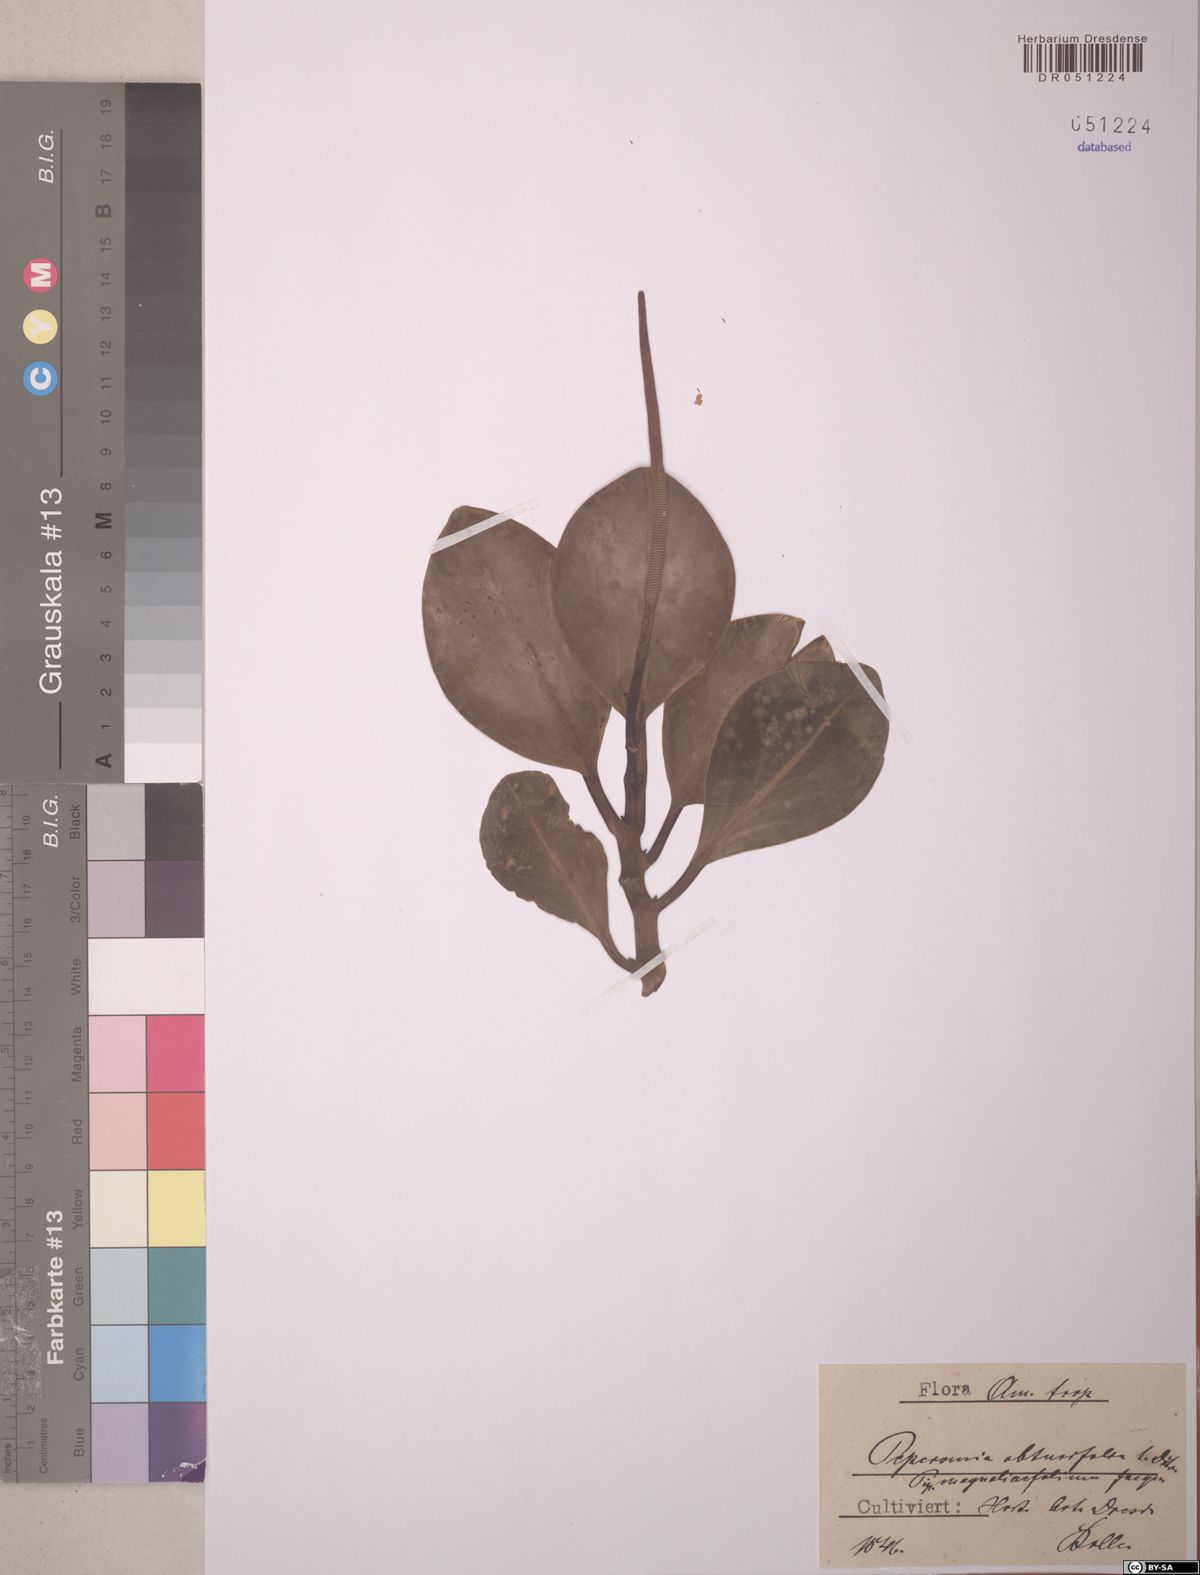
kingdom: Plantae
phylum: Tracheophyta
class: Magnoliopsida
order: Piperales
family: Piperaceae
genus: Peperomia
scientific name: Peperomia obtusifolia
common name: Baby rubberplant
